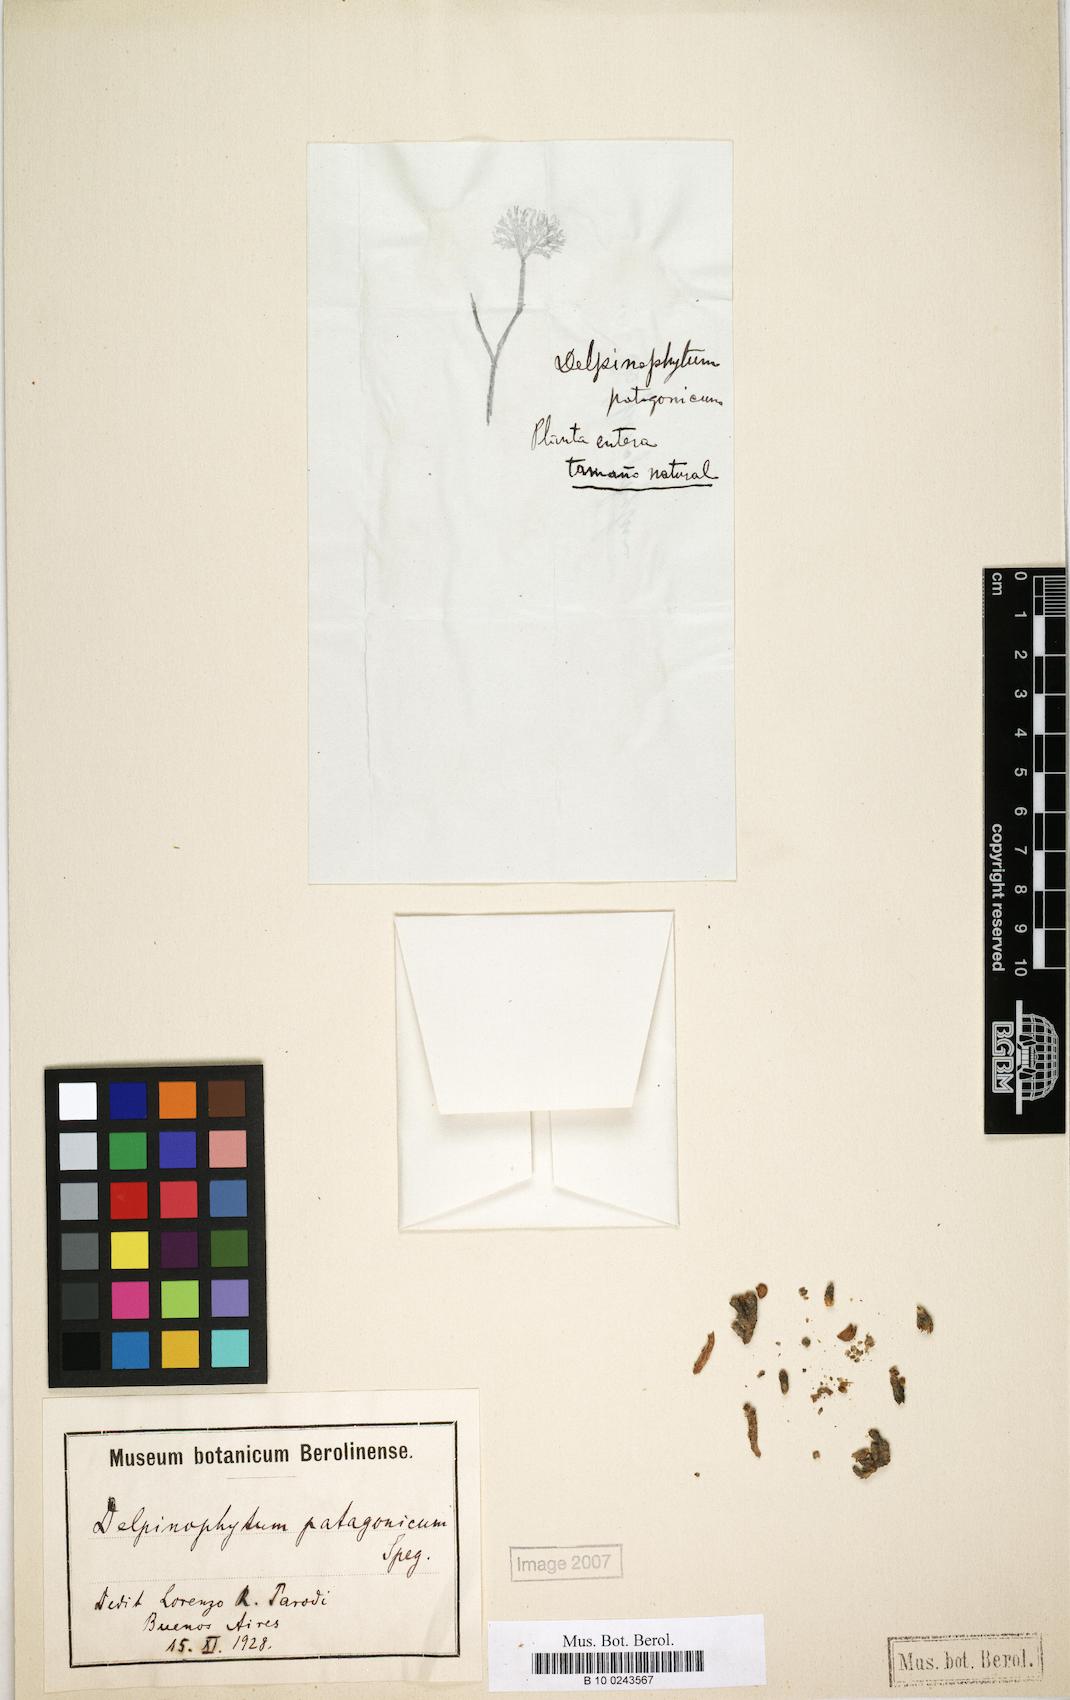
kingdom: Plantae
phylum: Tracheophyta
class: Magnoliopsida
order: Brassicales
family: Brassicaceae
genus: Delpinophytum
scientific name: Delpinophytum patagonicum
